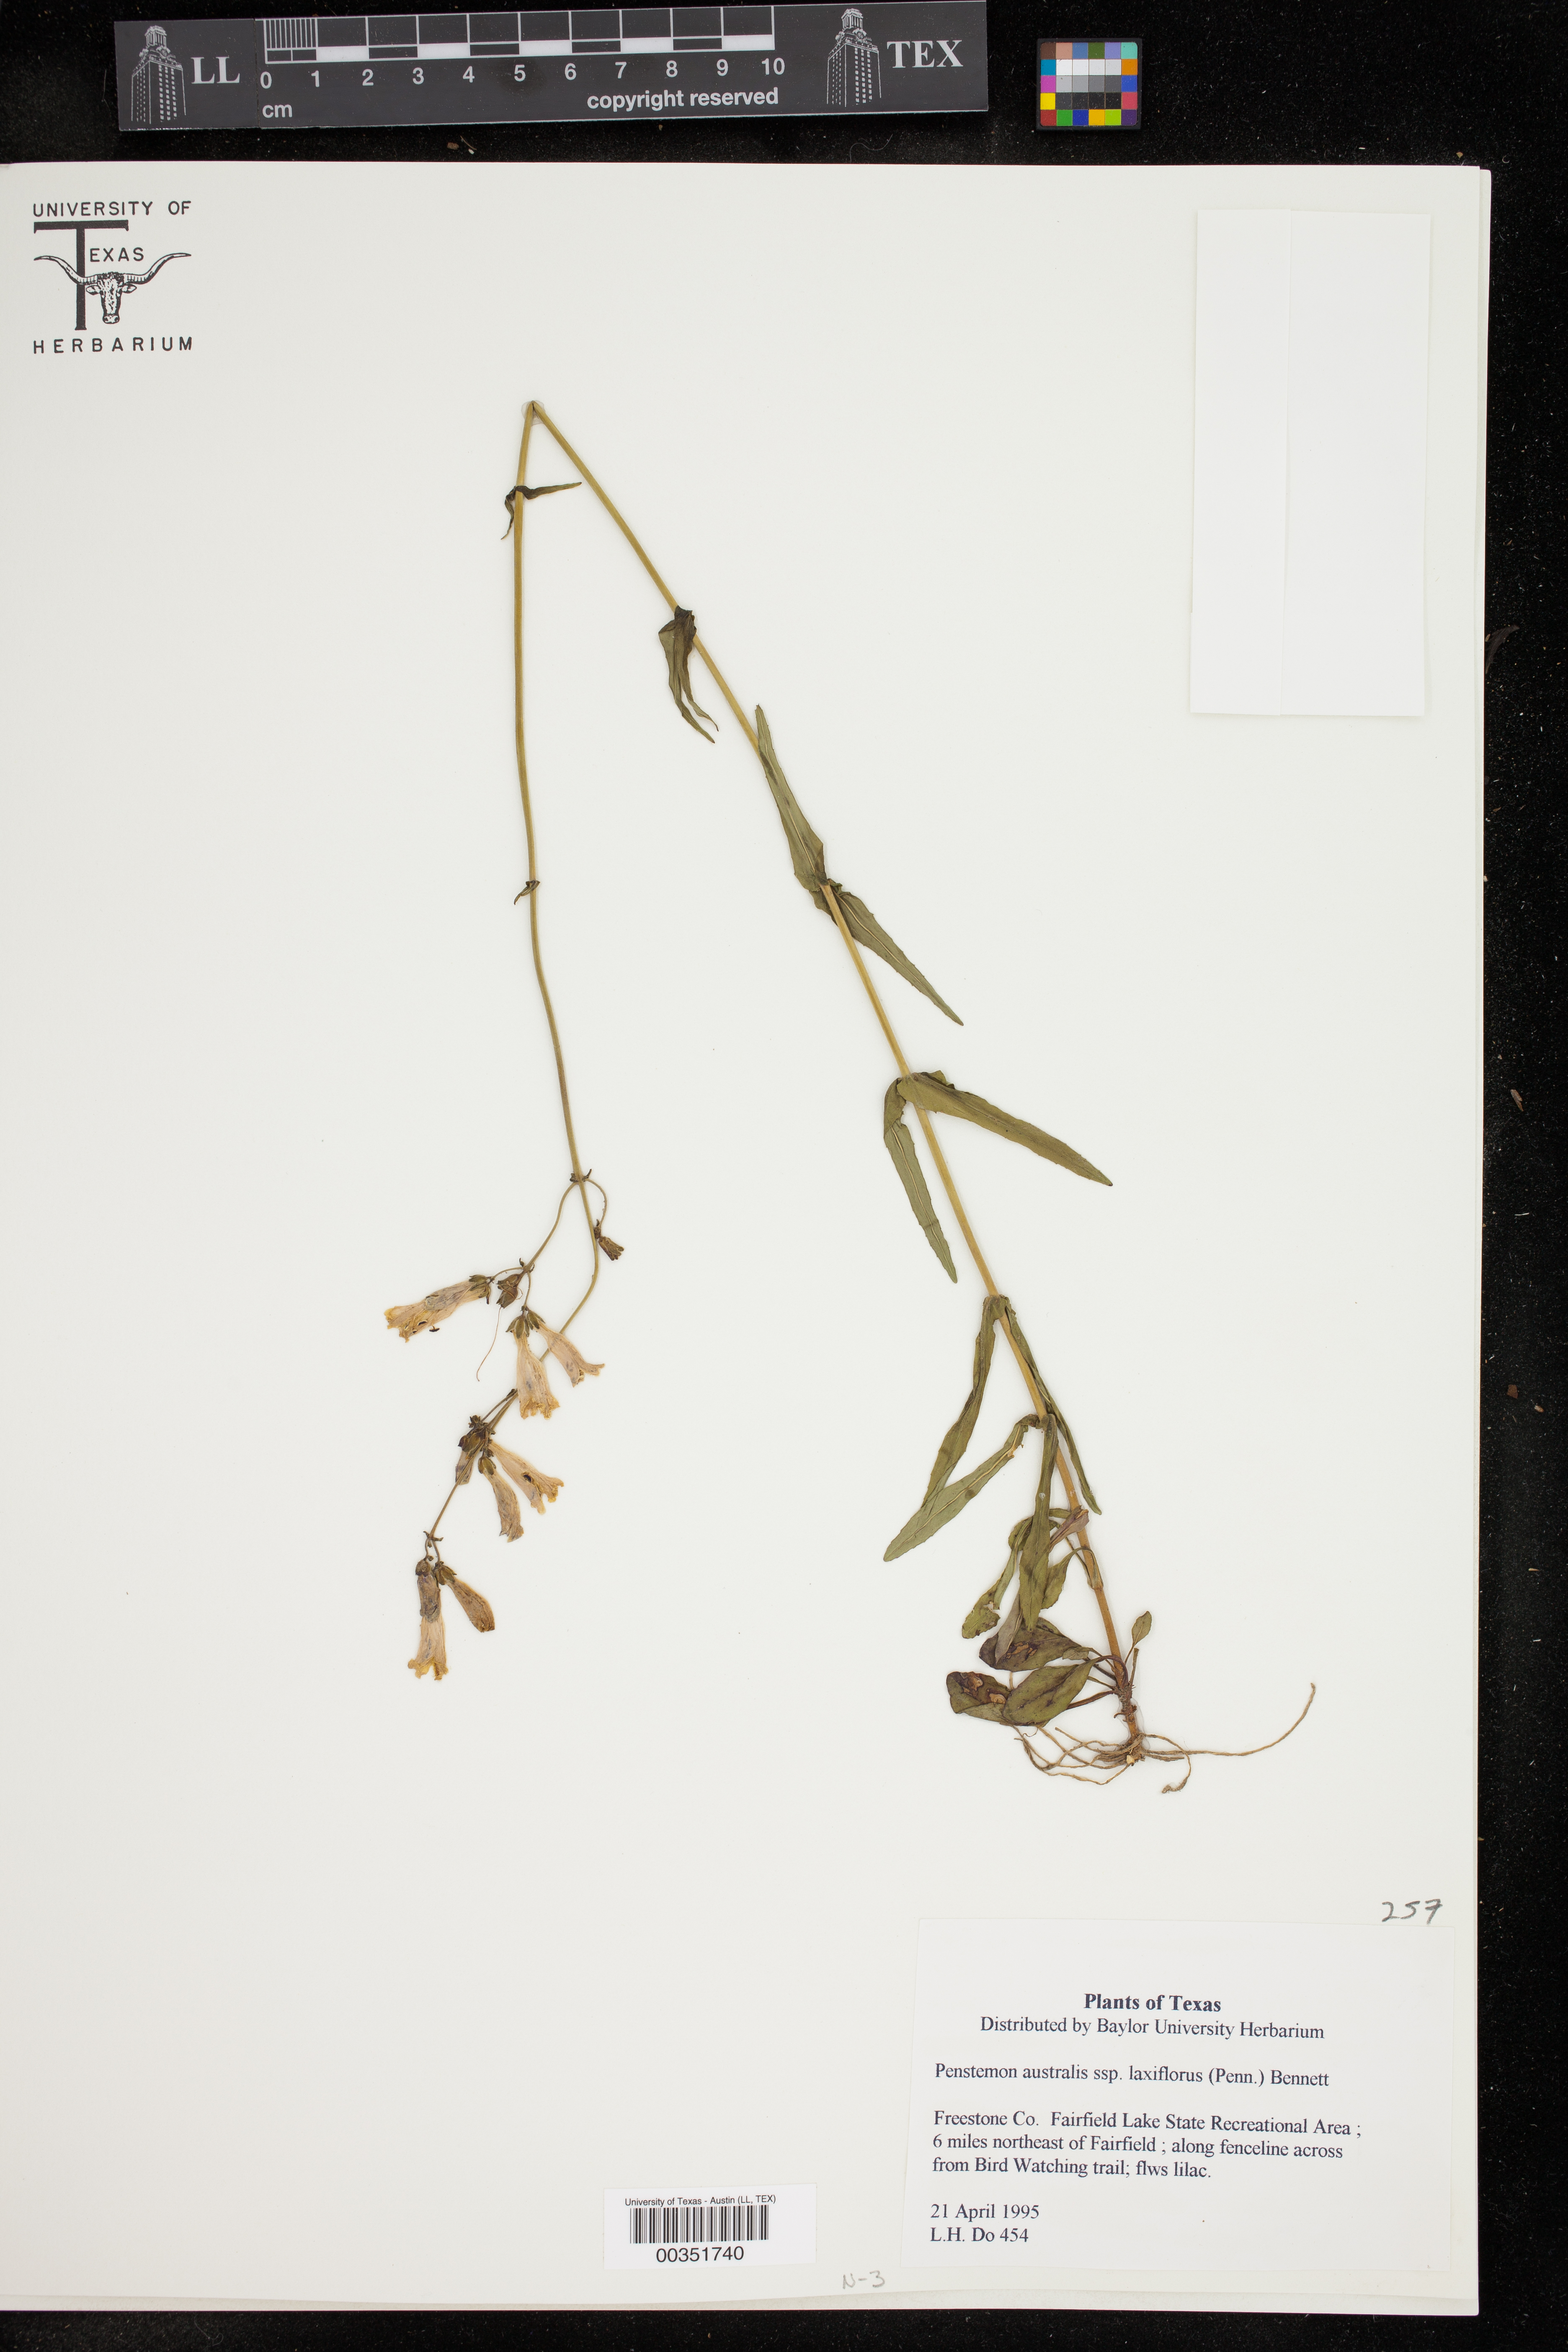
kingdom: Plantae
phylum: Tracheophyta
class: Magnoliopsida
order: Lamiales
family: Plantaginaceae
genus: Penstemon
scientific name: Penstemon laxiflorus
